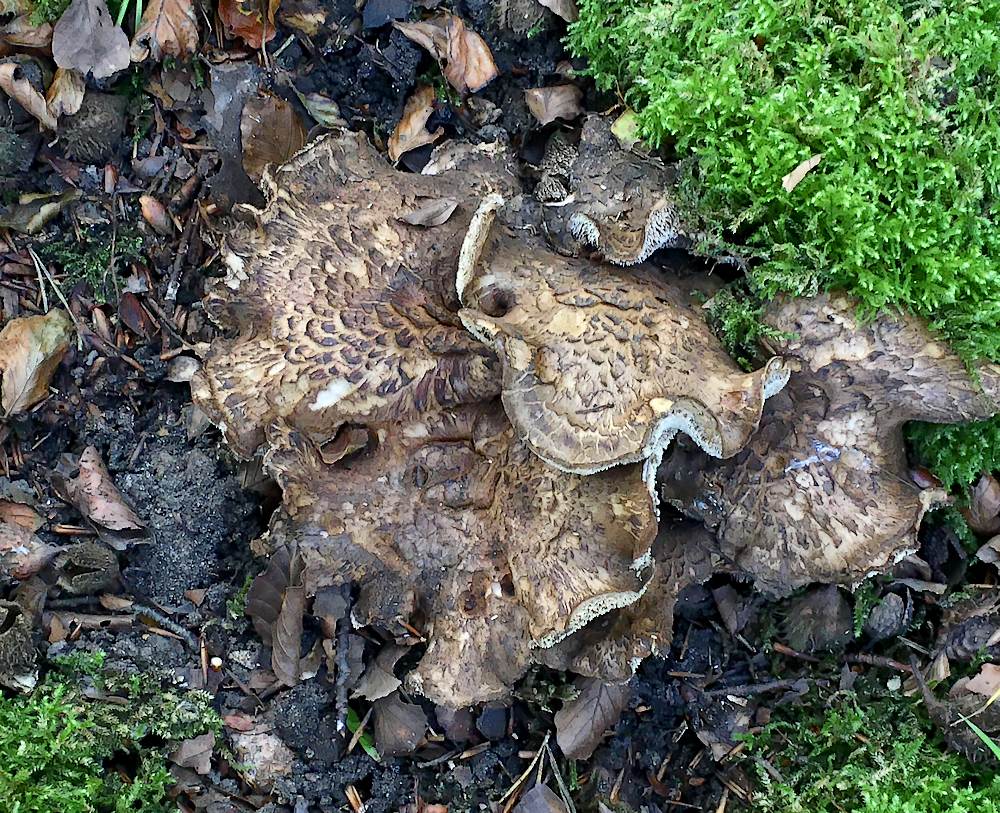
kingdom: Fungi
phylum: Basidiomycota
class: Agaricomycetes
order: Thelephorales
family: Bankeraceae
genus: Hydnellum
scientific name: Hydnellum lepidum
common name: skrænt-korkpigsvamp
